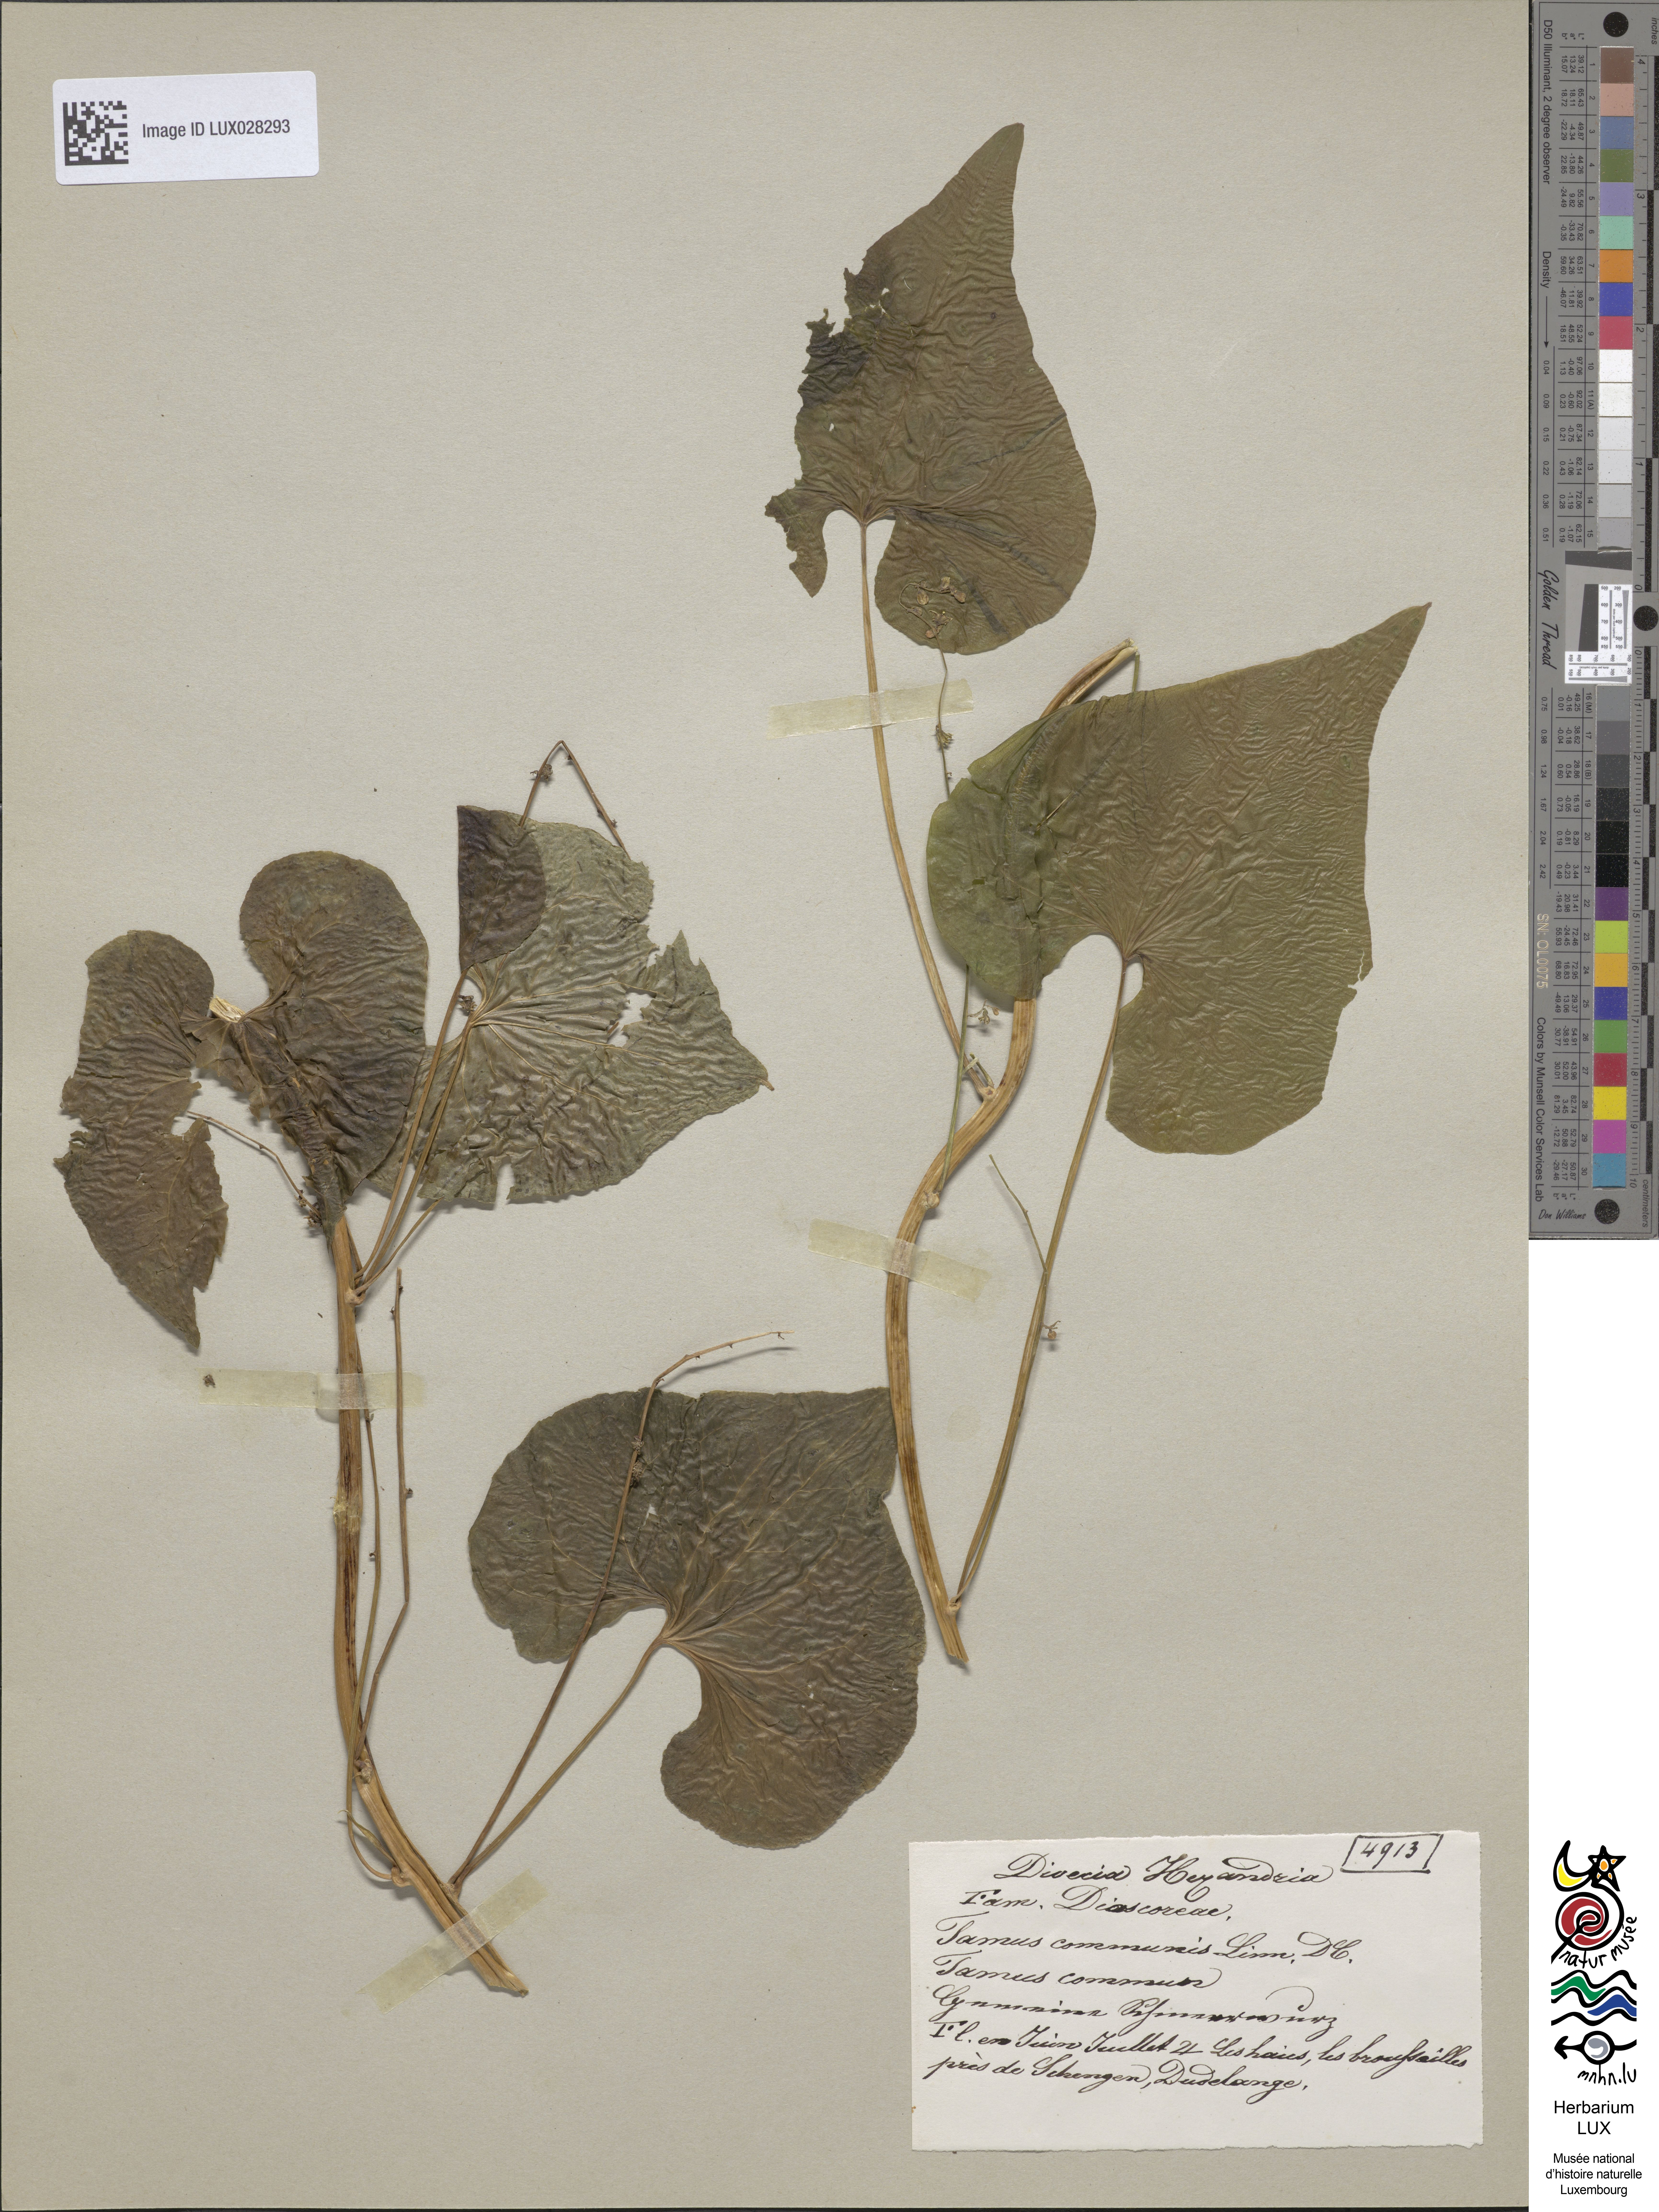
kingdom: Plantae
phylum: Tracheophyta
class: Liliopsida
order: Dioscoreales
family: Dioscoreaceae
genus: Dioscorea
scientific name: Dioscorea communis
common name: Black-bindweed
